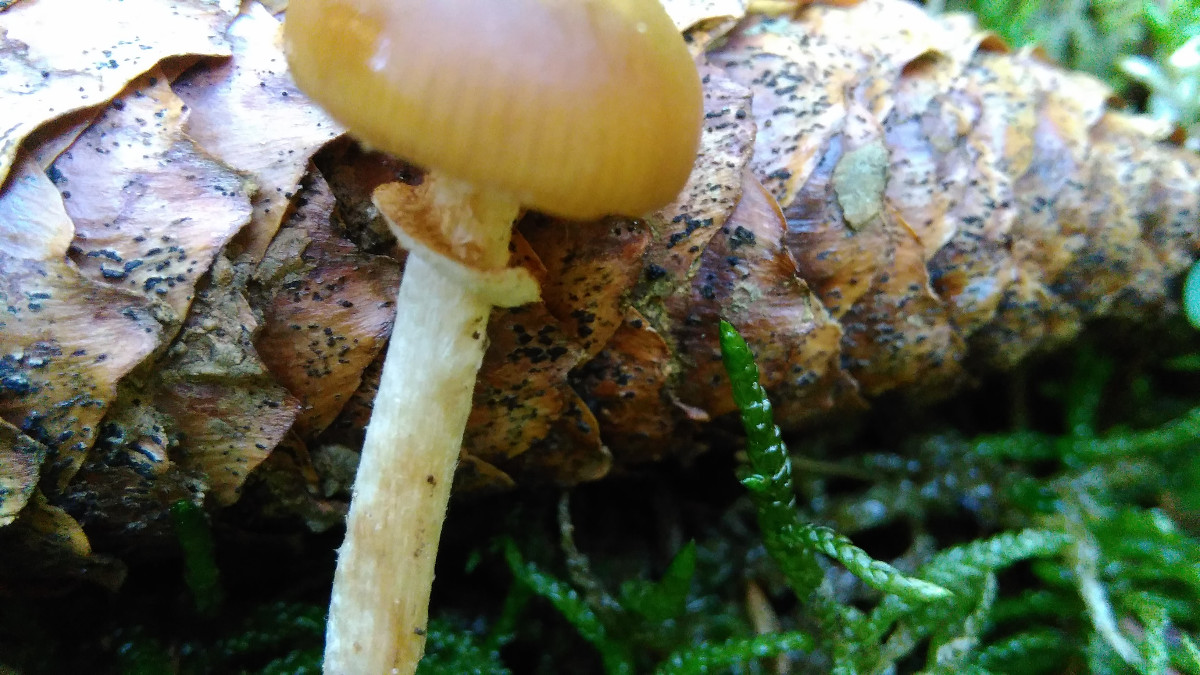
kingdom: Fungi
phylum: Basidiomycota
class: Agaricomycetes
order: Agaricales
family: Bolbitiaceae
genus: Conocybe
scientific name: Conocybe aporos
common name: tidlig dansehat
